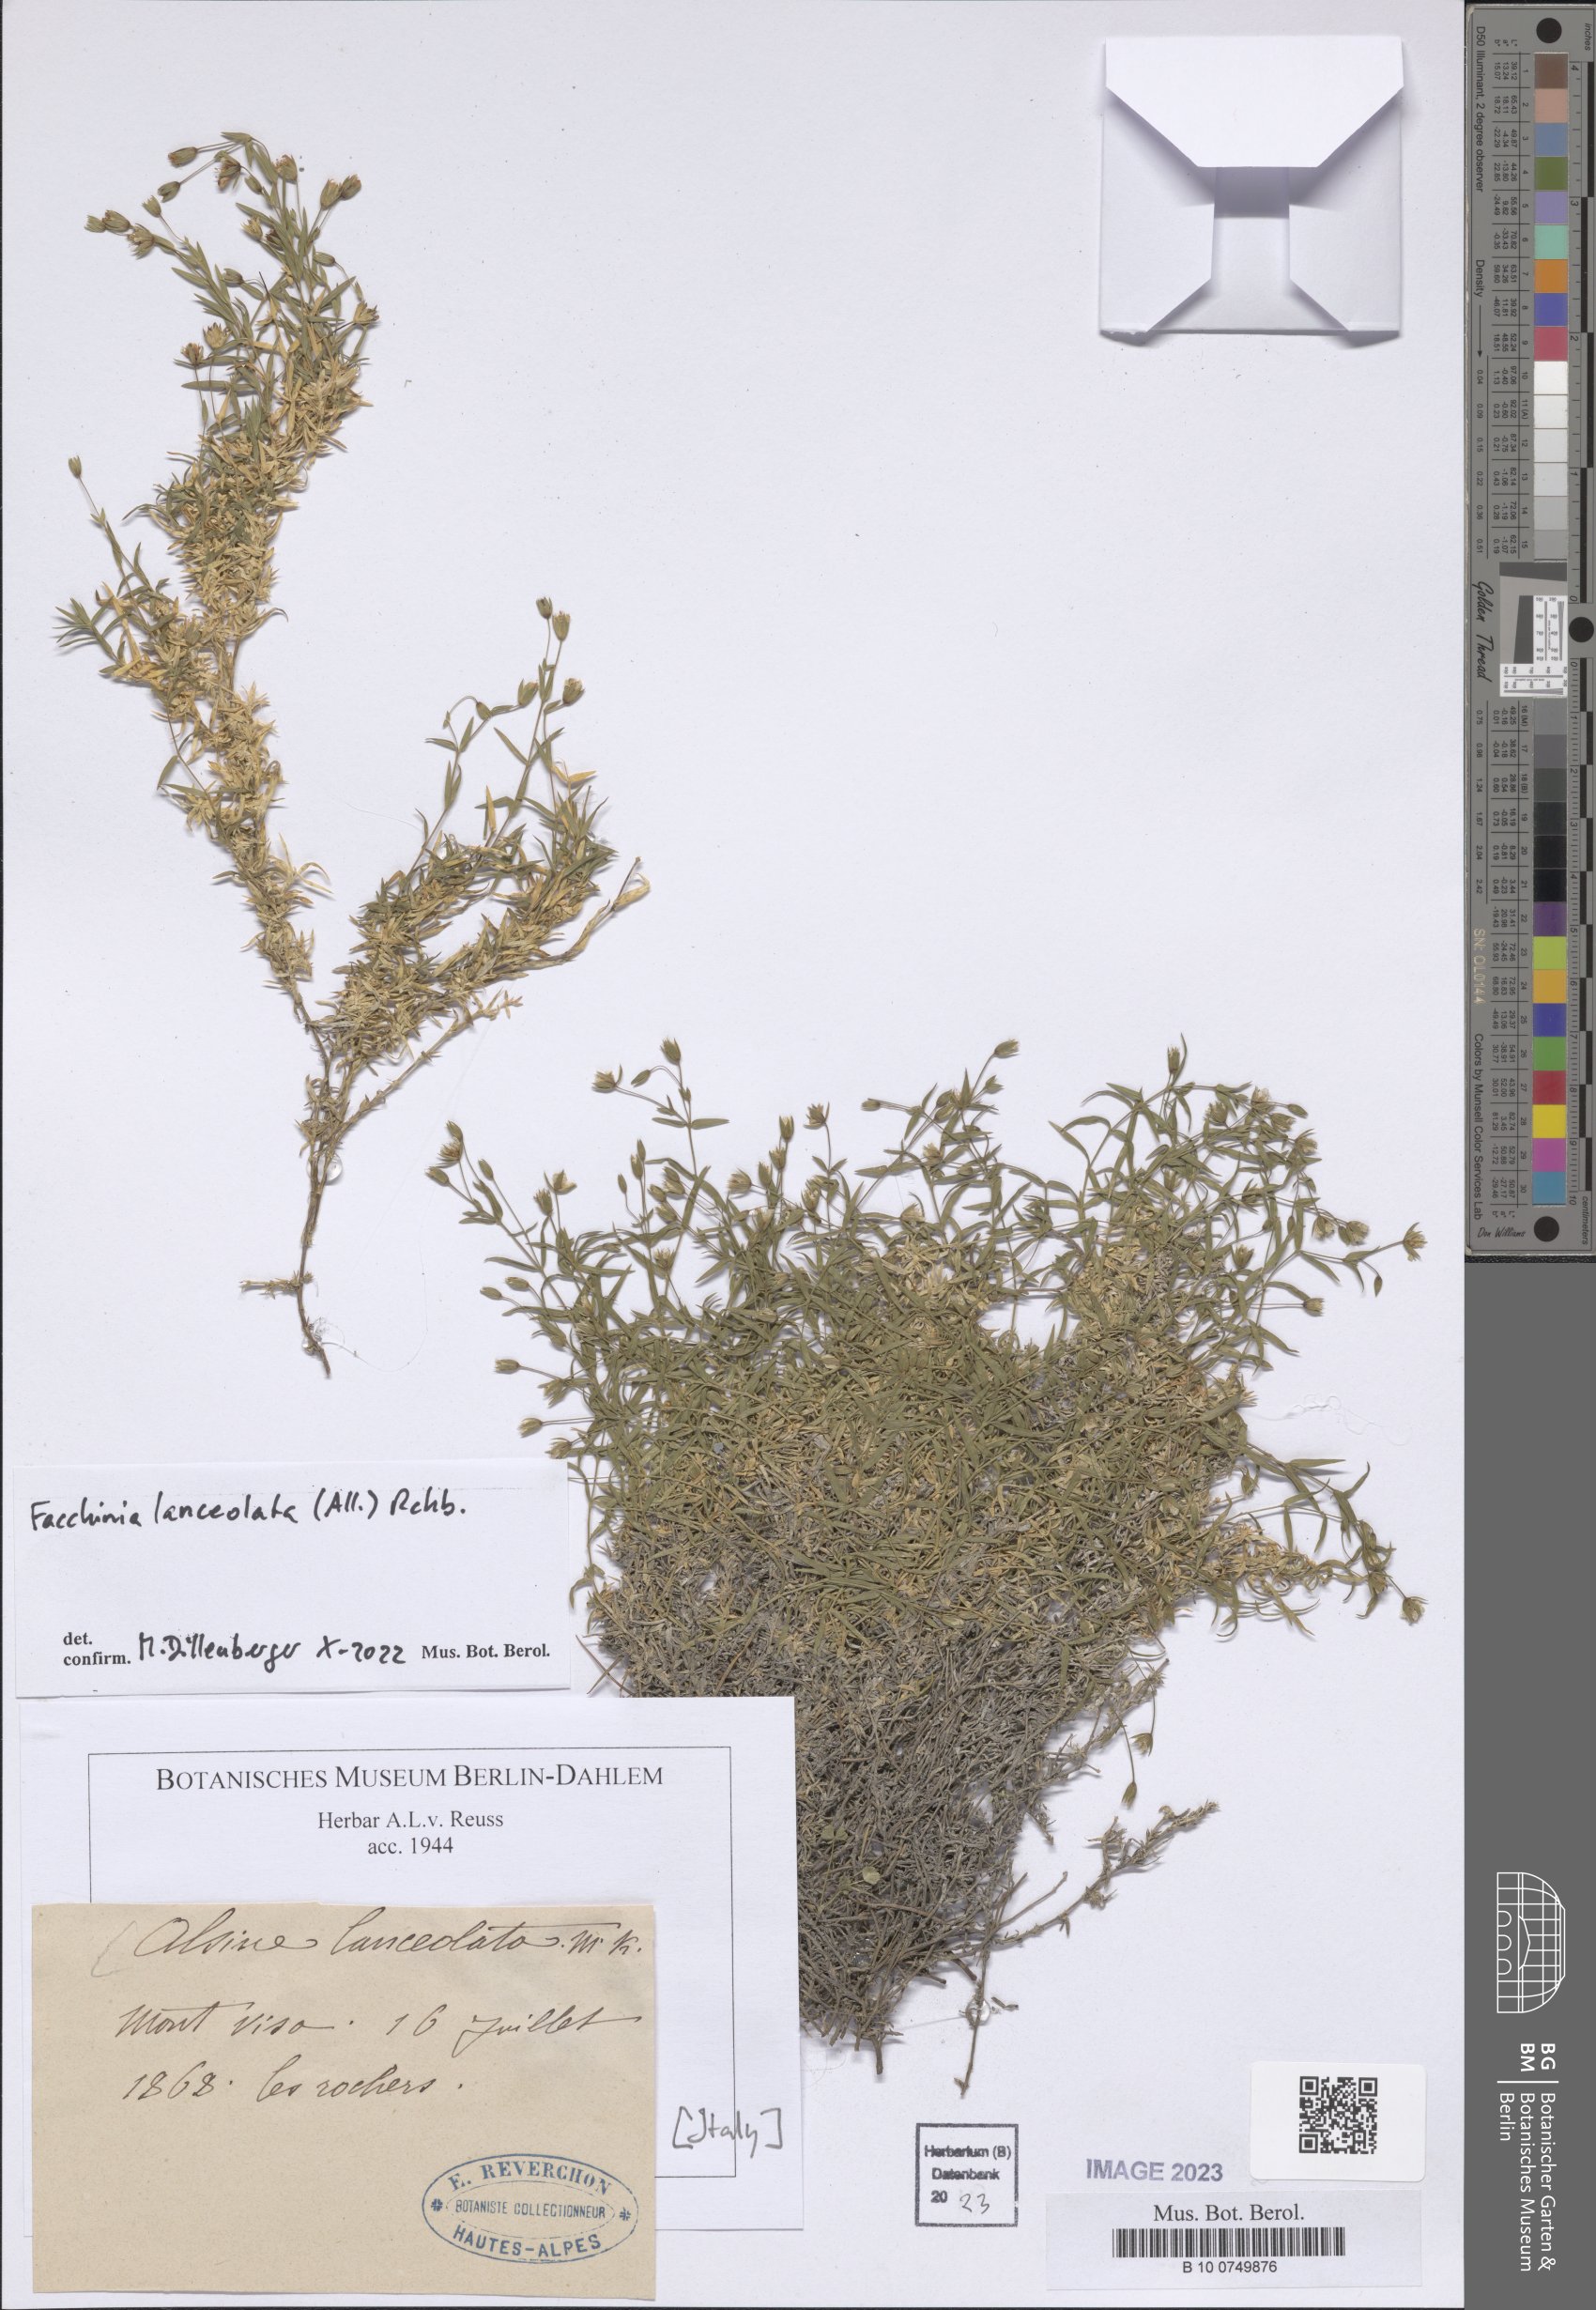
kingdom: Plantae
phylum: Tracheophyta
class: Magnoliopsida
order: Caryophyllales
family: Caryophyllaceae
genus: Facchinia
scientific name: Facchinia lanceolata
